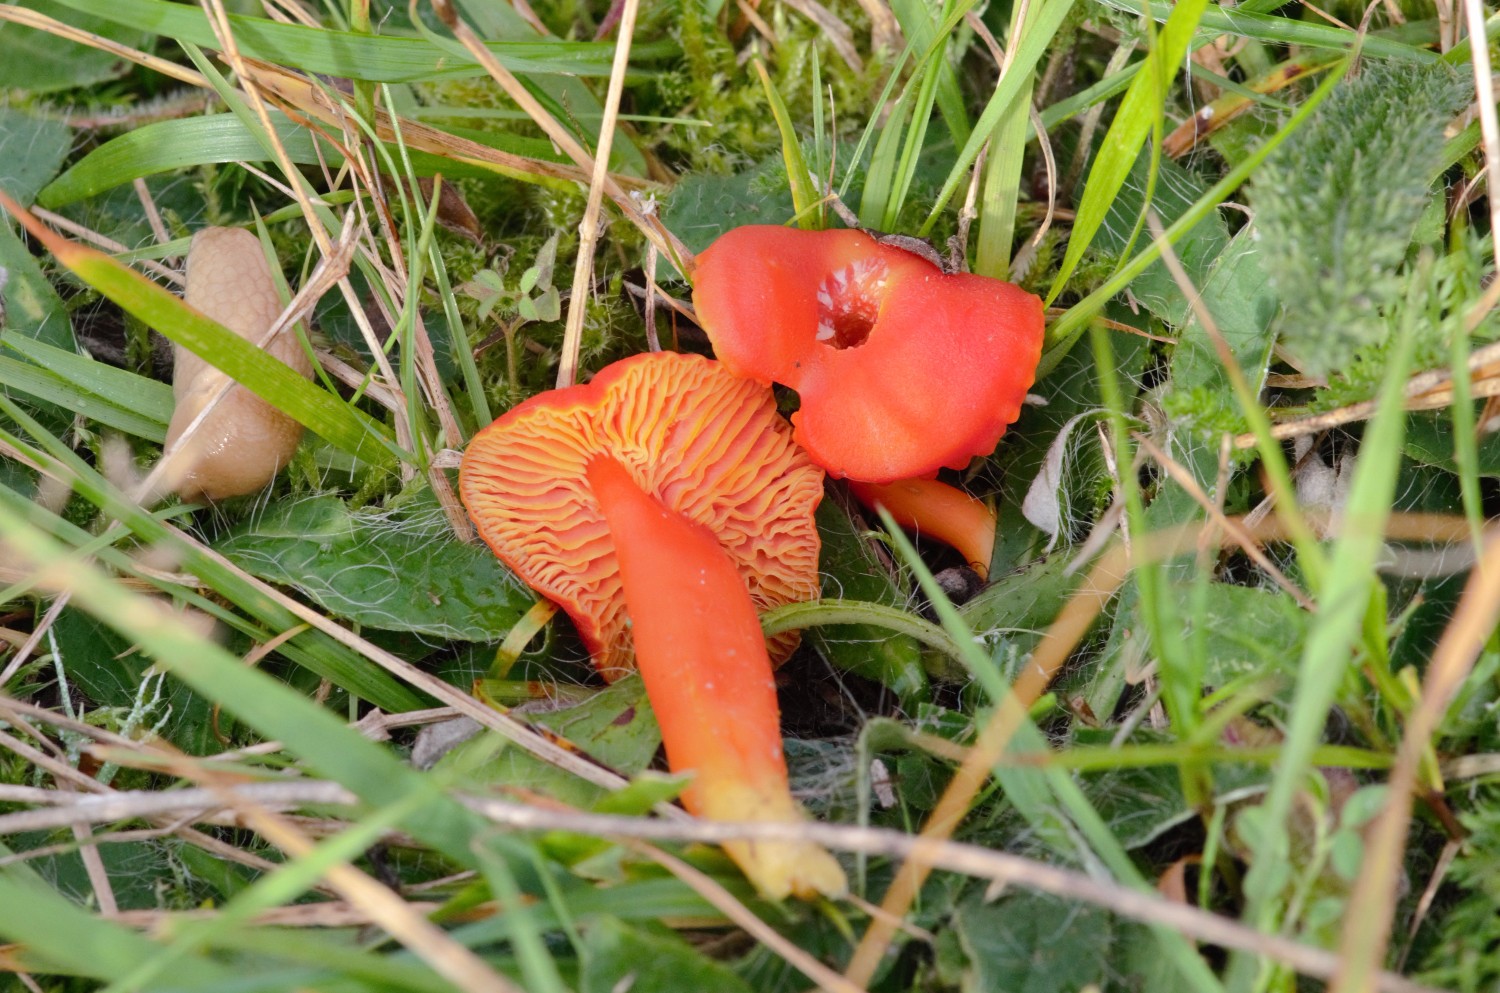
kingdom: Fungi
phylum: Basidiomycota
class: Agaricomycetes
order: Agaricales
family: Hygrophoraceae
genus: Hygrocybe
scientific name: Hygrocybe miniata
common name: mønje-vokshat
